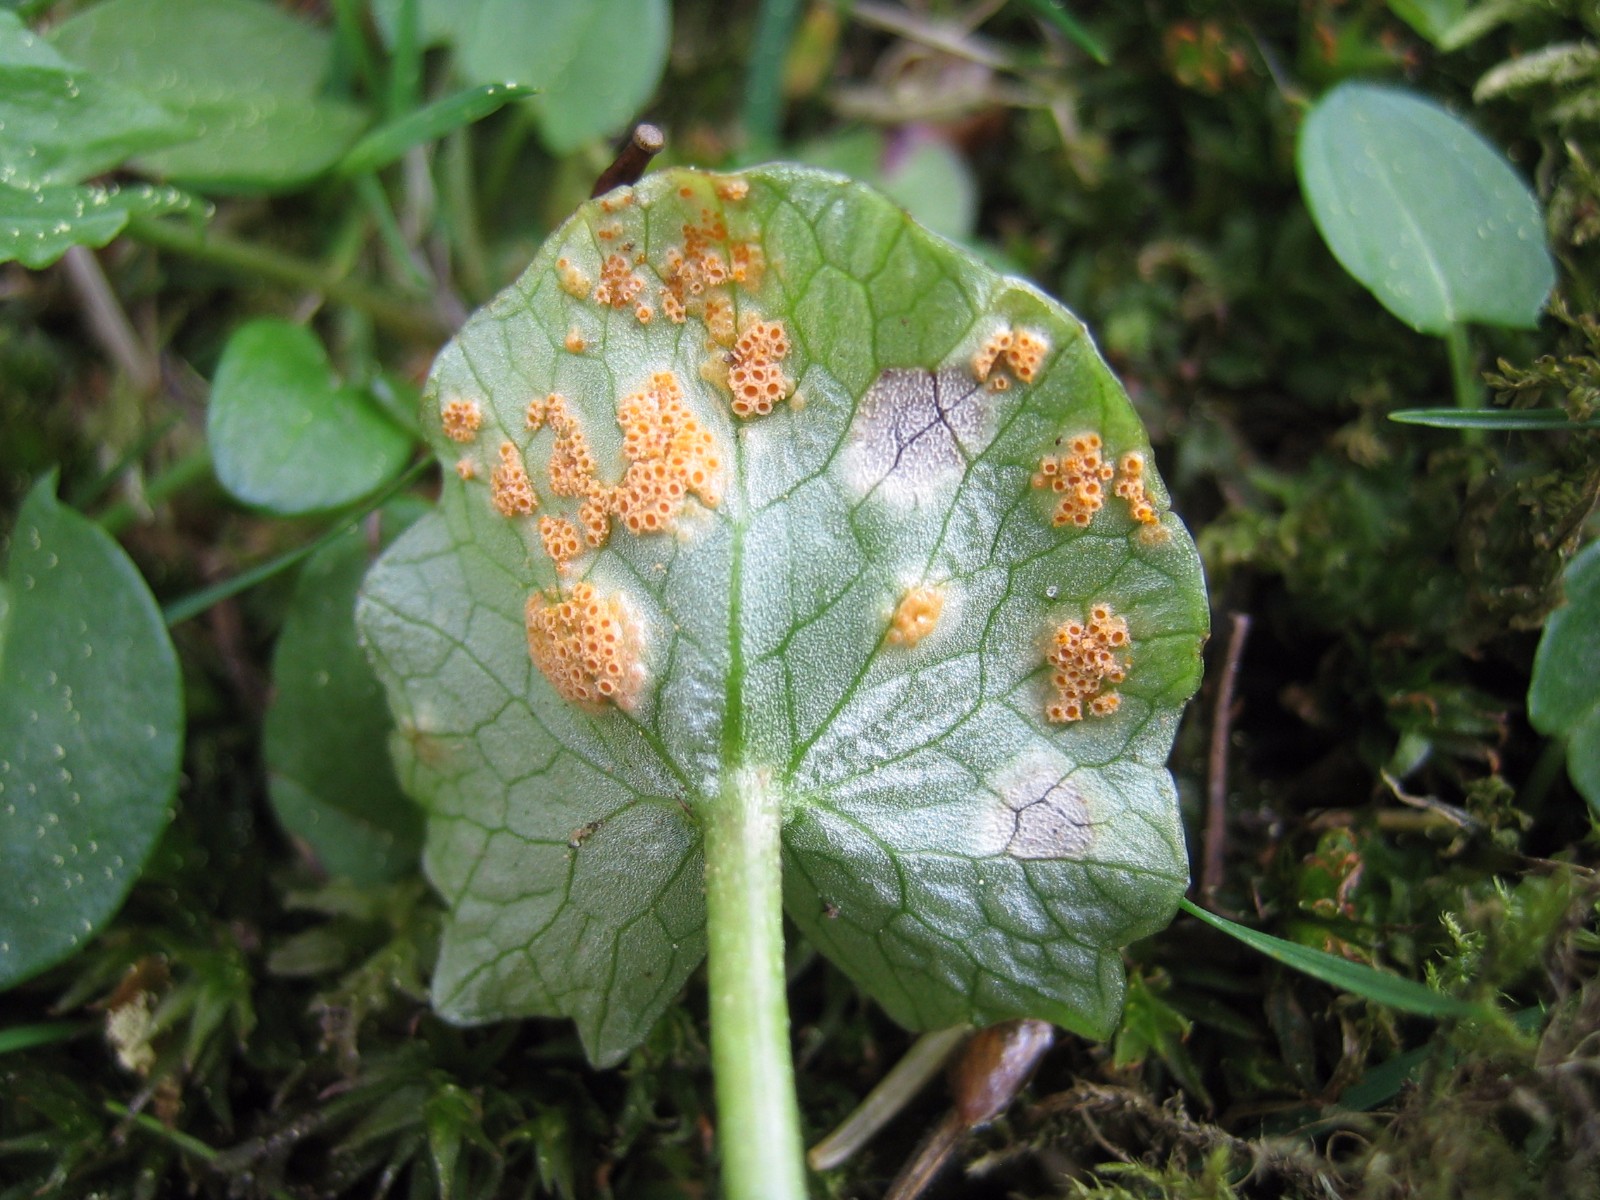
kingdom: Fungi
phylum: Basidiomycota
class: Pucciniomycetes
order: Pucciniales
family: Pucciniaceae
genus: Uromyces
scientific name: Uromyces dactylidis
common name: ranunkel-encellerust
